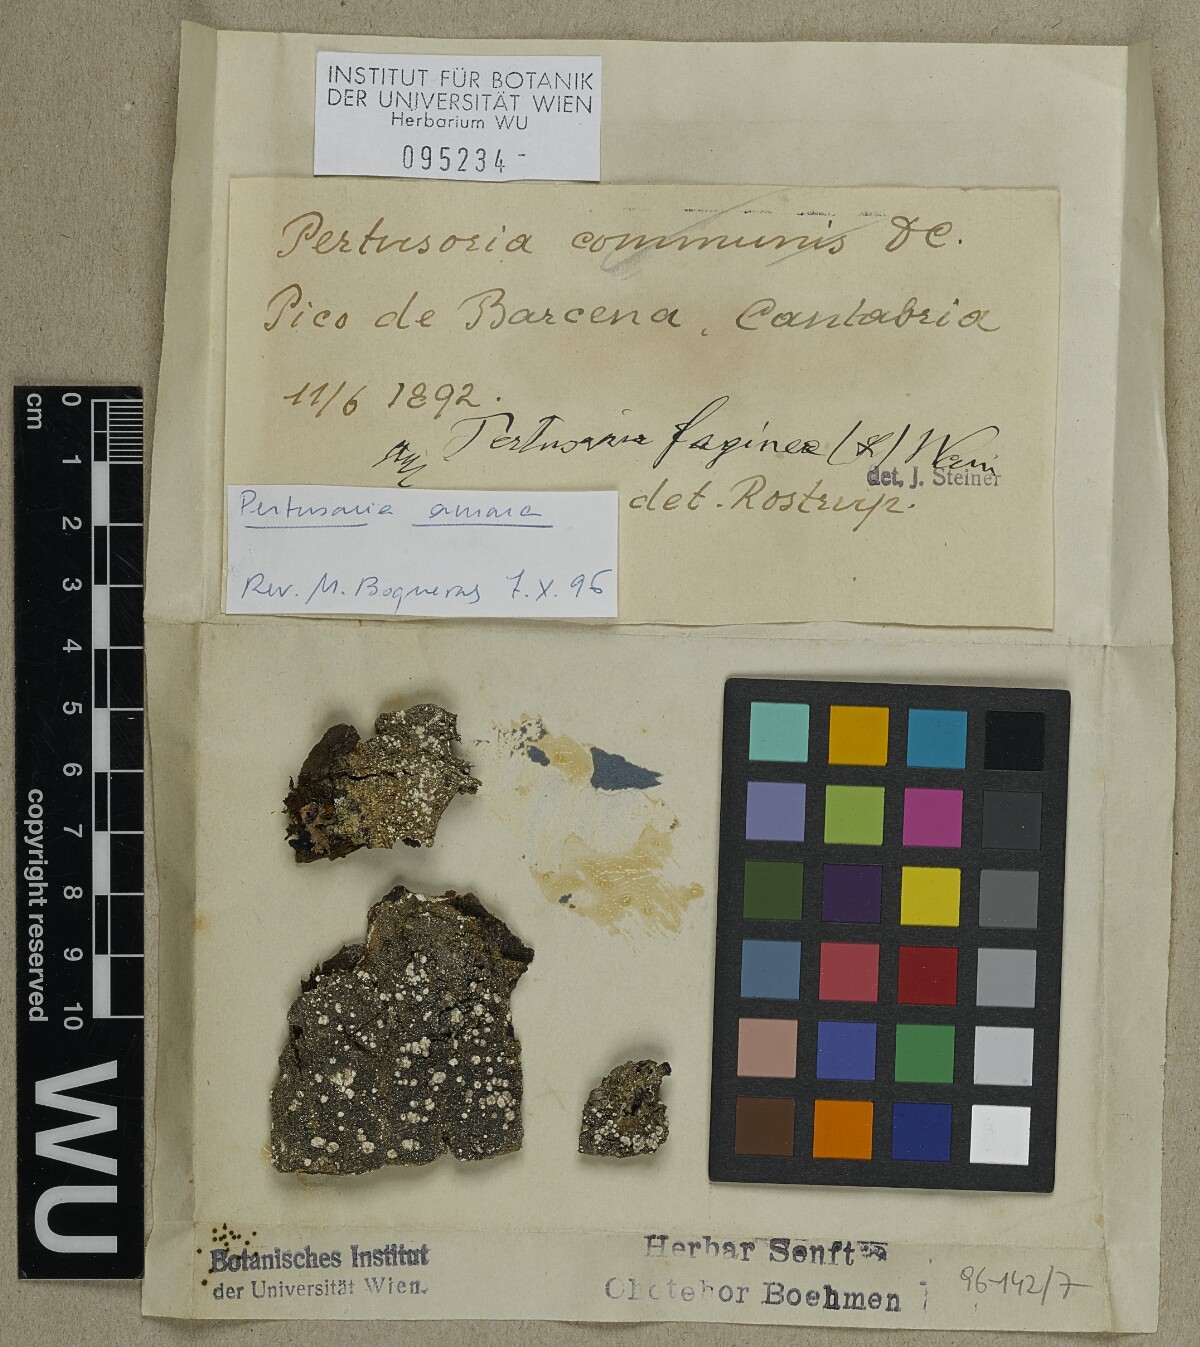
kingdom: Fungi
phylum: Ascomycota
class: Lecanoromycetes
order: Pertusariales
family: Pertusariaceae
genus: Lepra
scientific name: Lepra amara
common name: Bitter wart lichen
